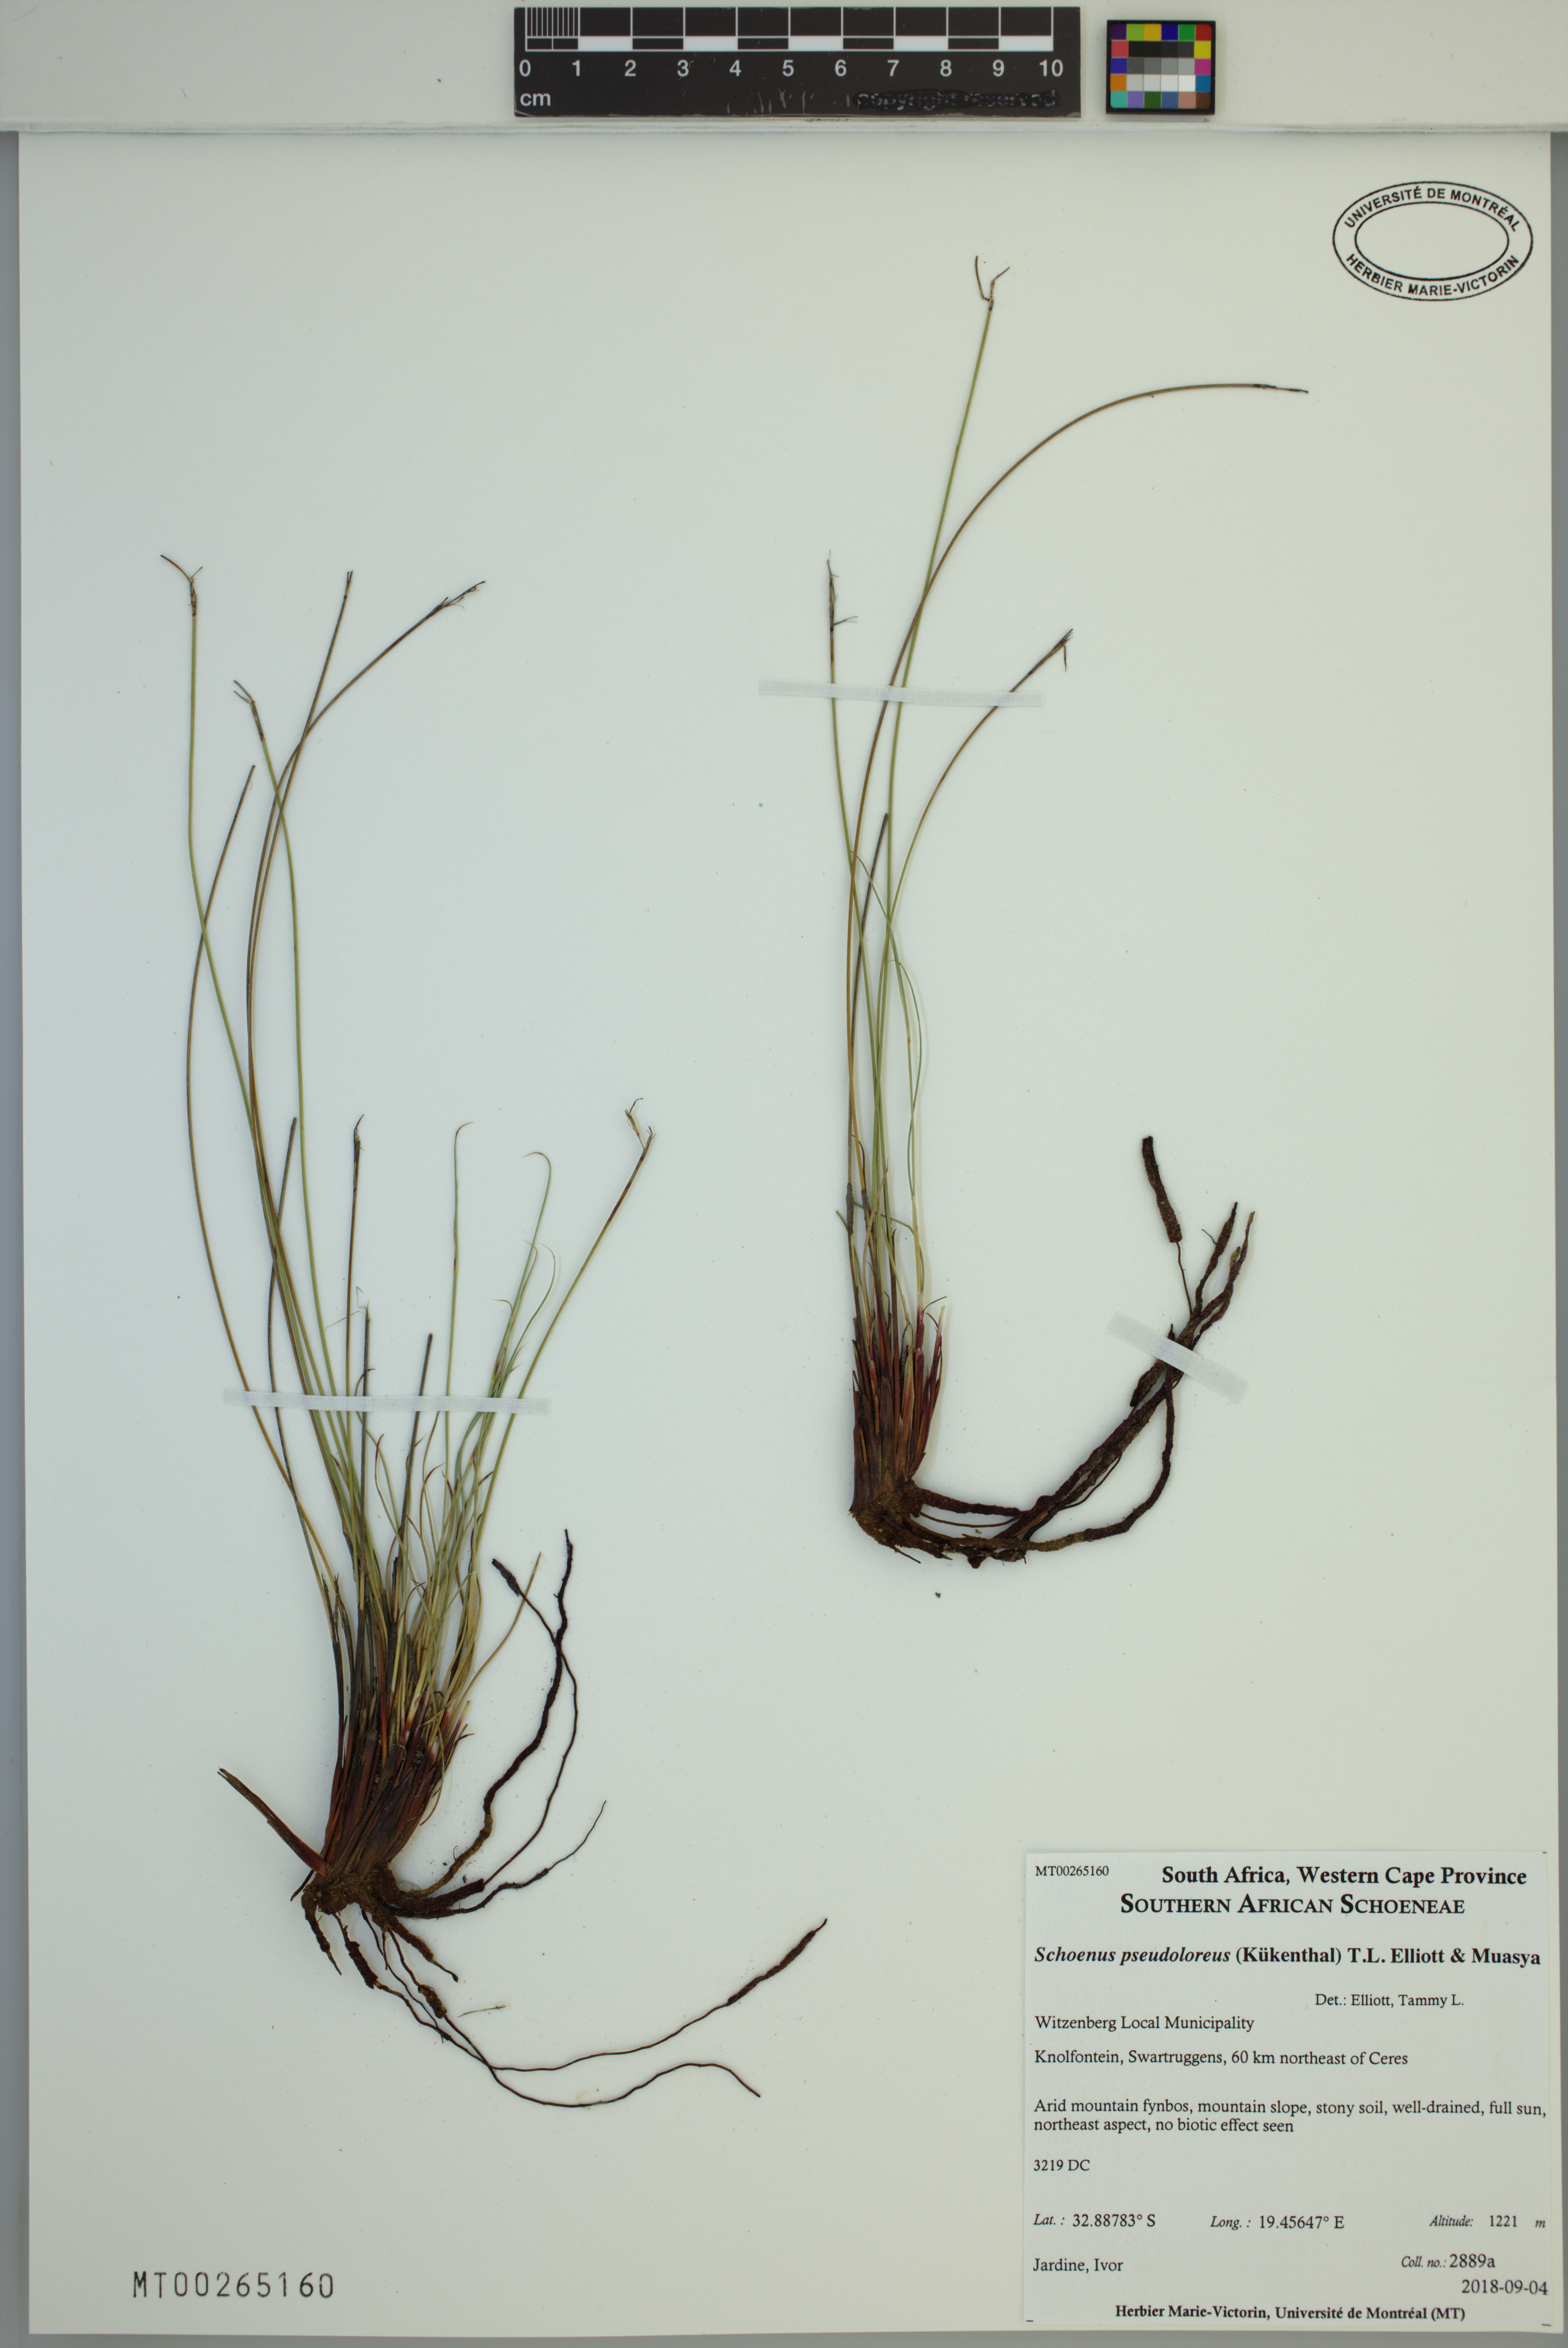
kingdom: Plantae
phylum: Tracheophyta
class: Liliopsida
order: Poales
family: Cyperaceae
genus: Schoenus
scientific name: Schoenus pseudoloreus
